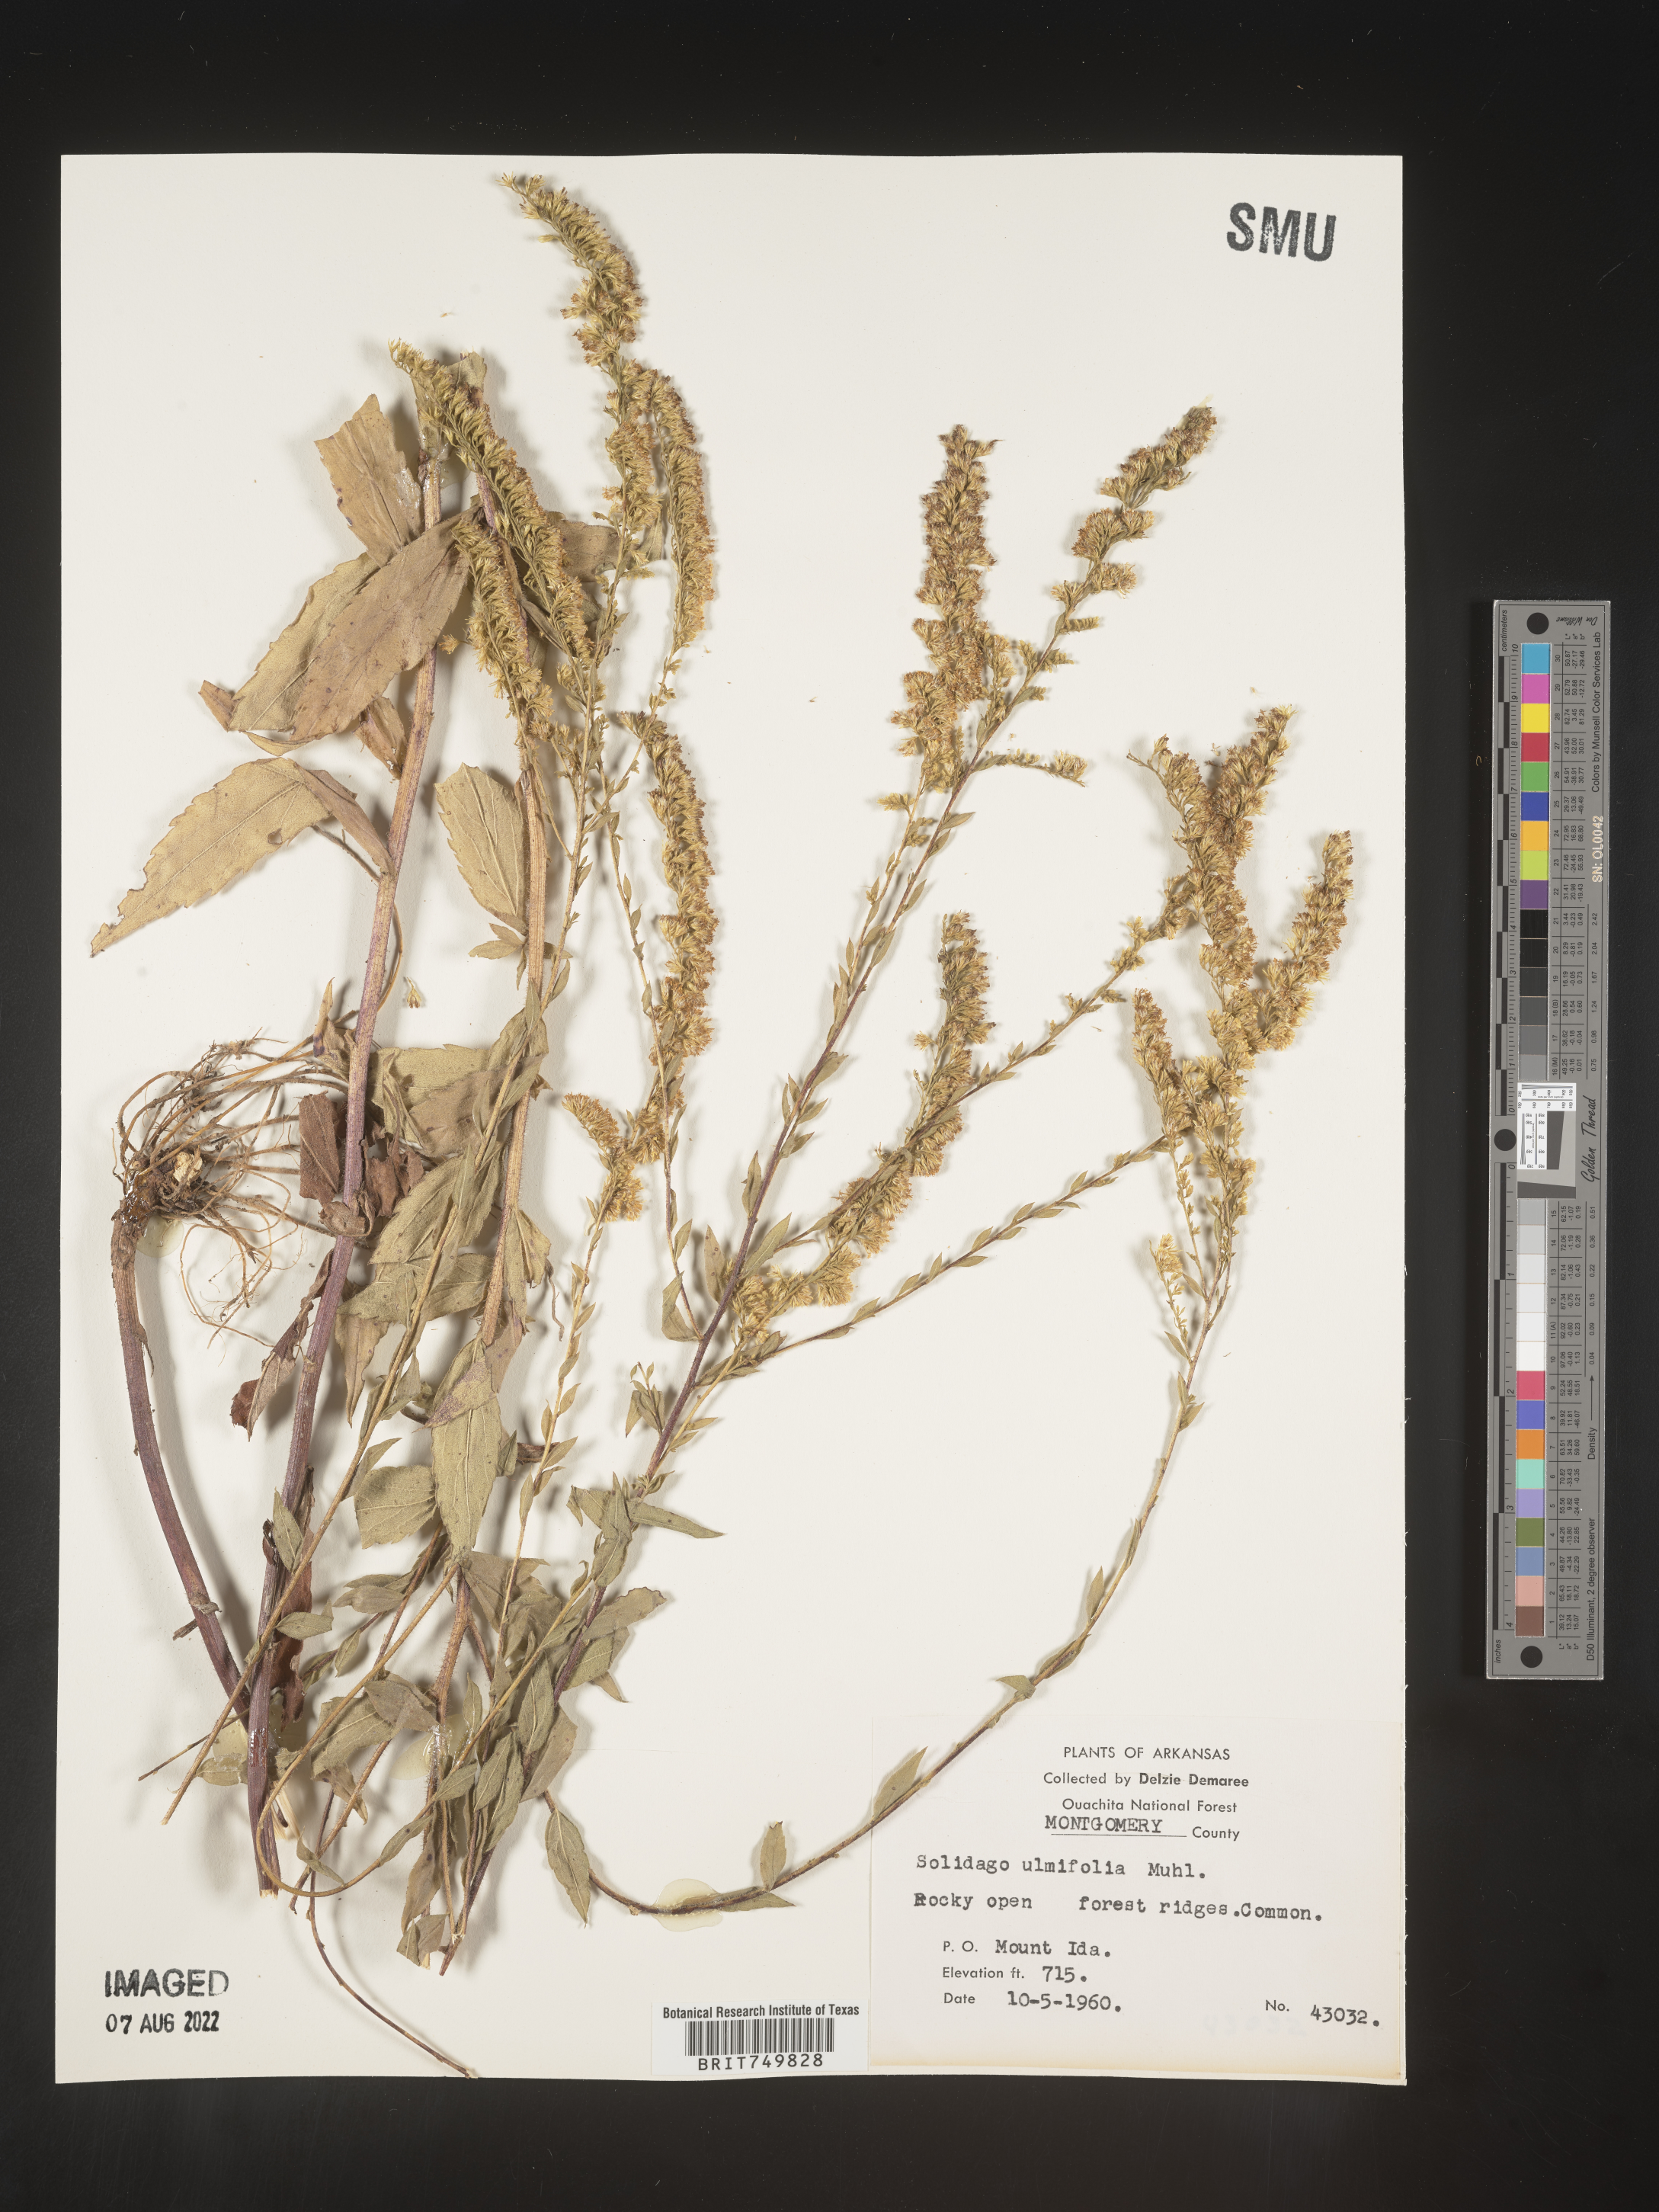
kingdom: Plantae
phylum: Tracheophyta
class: Magnoliopsida
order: Asterales
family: Asteraceae
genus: Solidago
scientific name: Solidago ulmifolia
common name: Elm-leaf goldenrod
